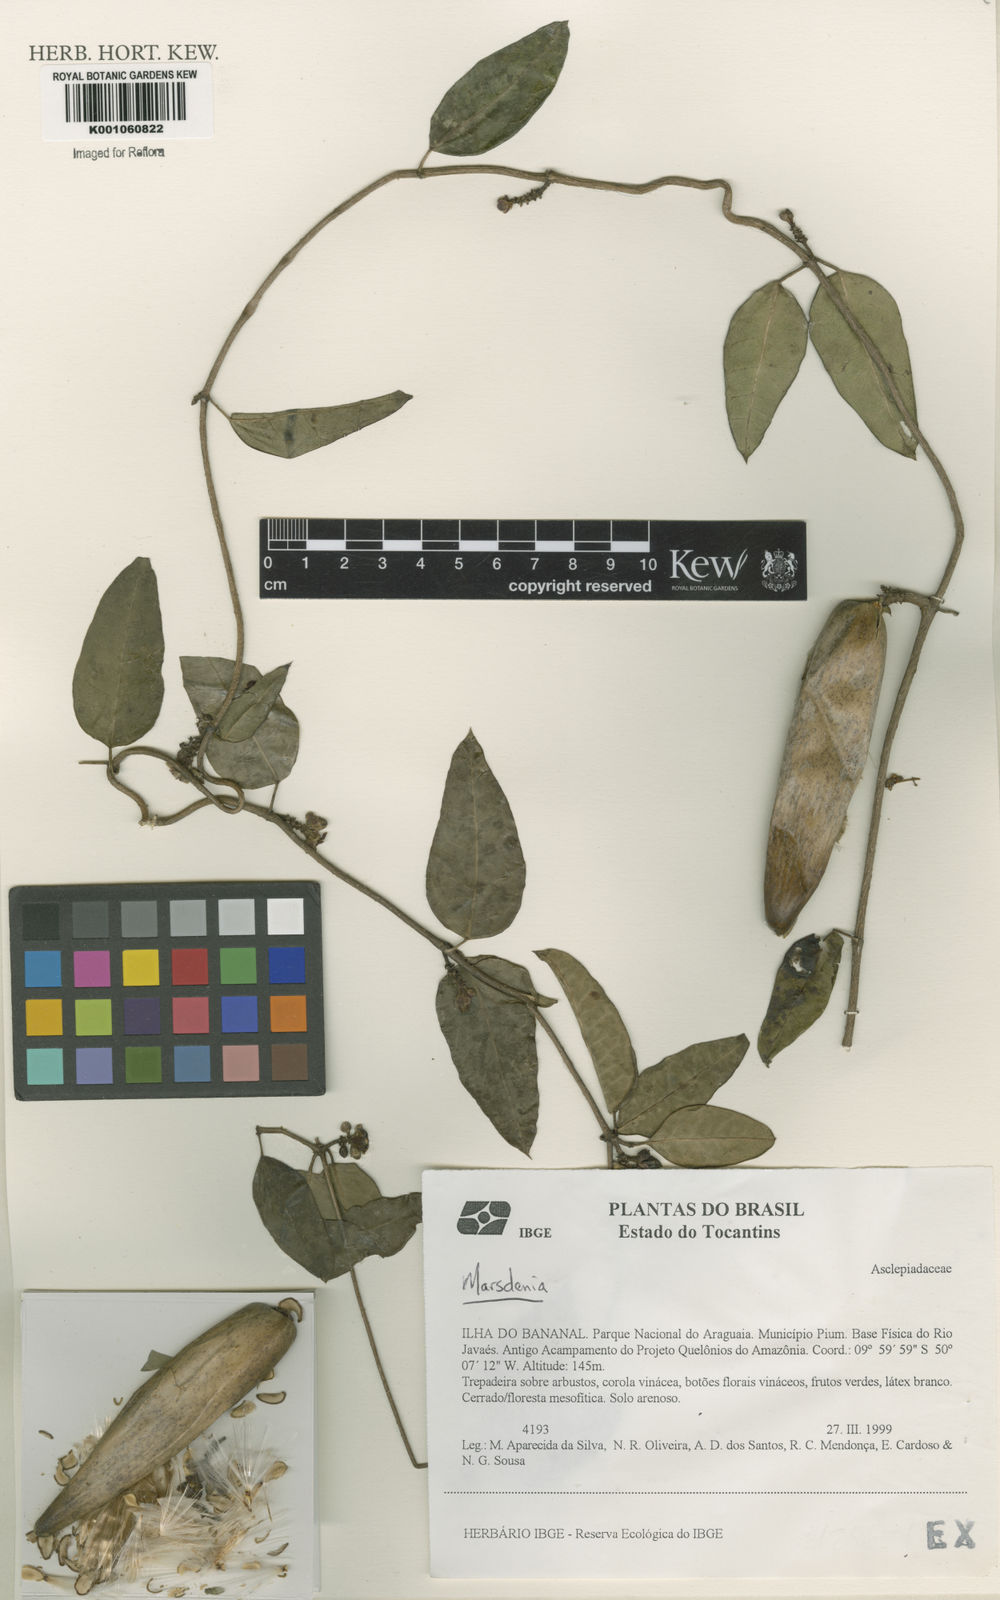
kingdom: Plantae
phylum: Tracheophyta
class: Magnoliopsida
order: Gentianales
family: Apocynaceae
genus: Marsdenia
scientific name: Marsdenia
